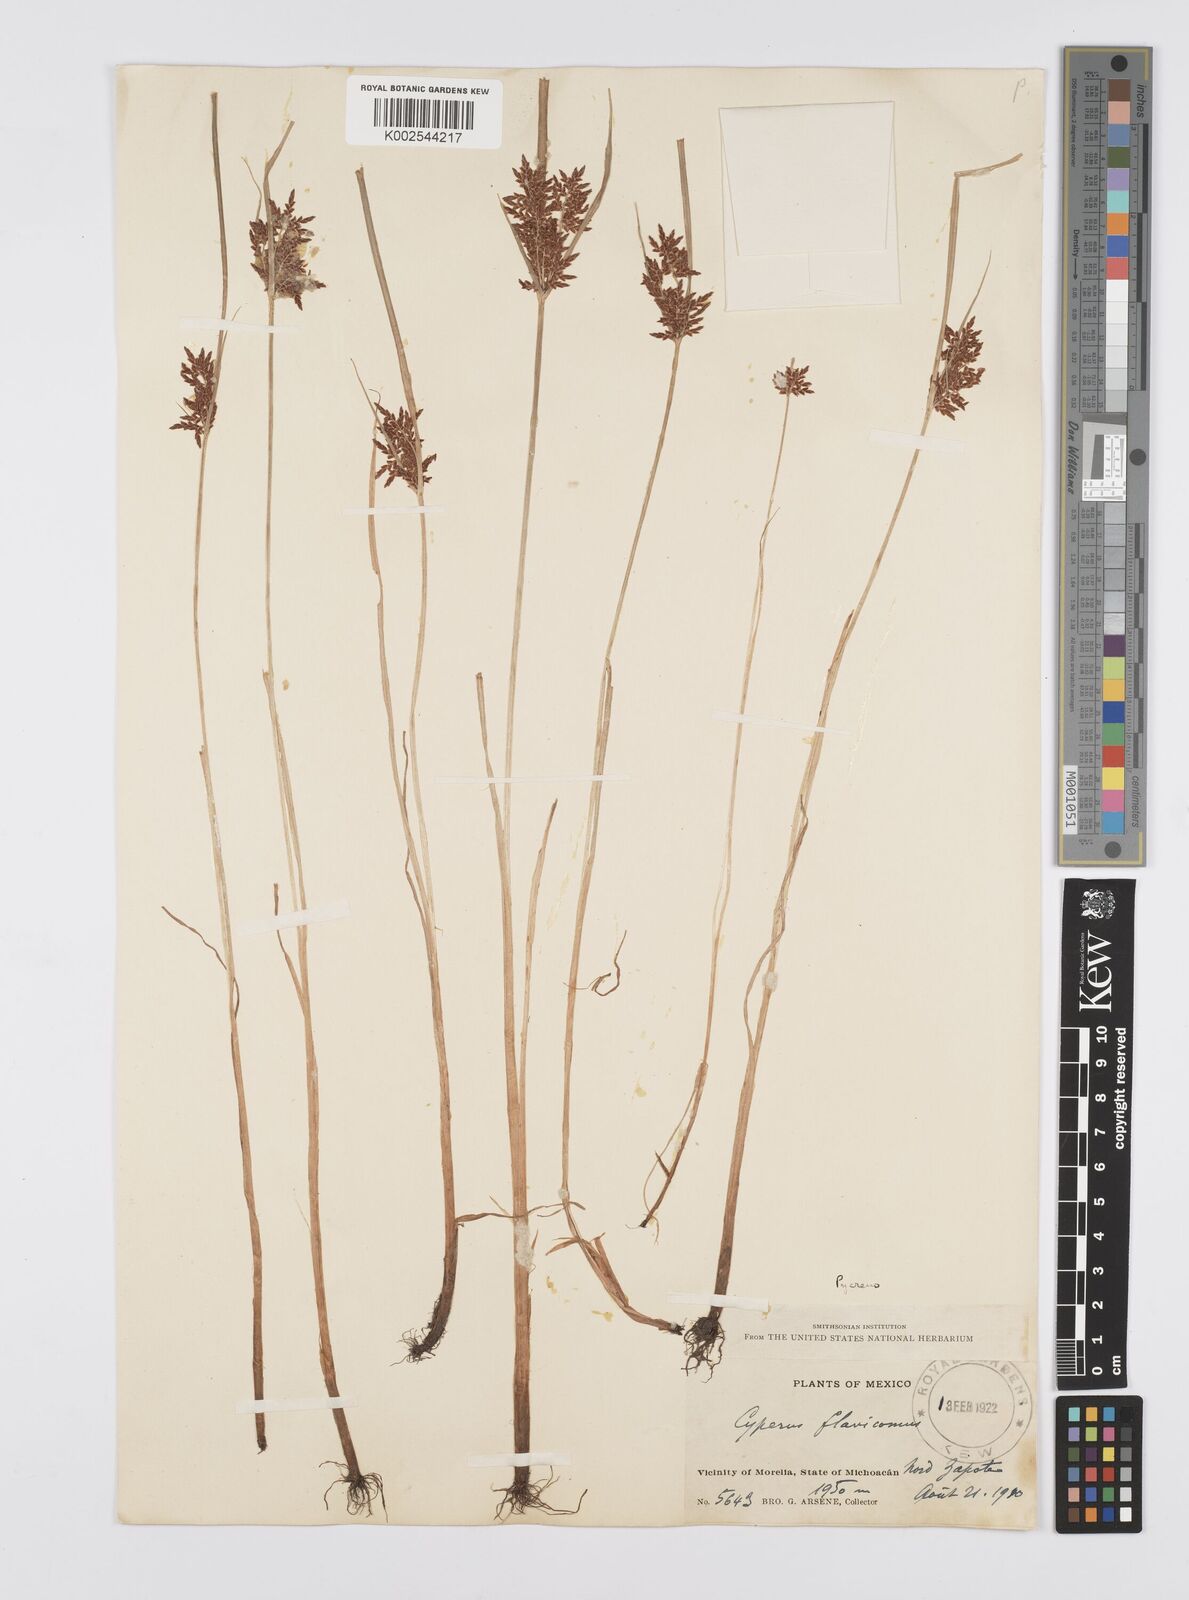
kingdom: Plantae
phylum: Tracheophyta
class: Liliopsida
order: Poales
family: Cyperaceae
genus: Cyperus
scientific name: Cyperus macrostachyos
